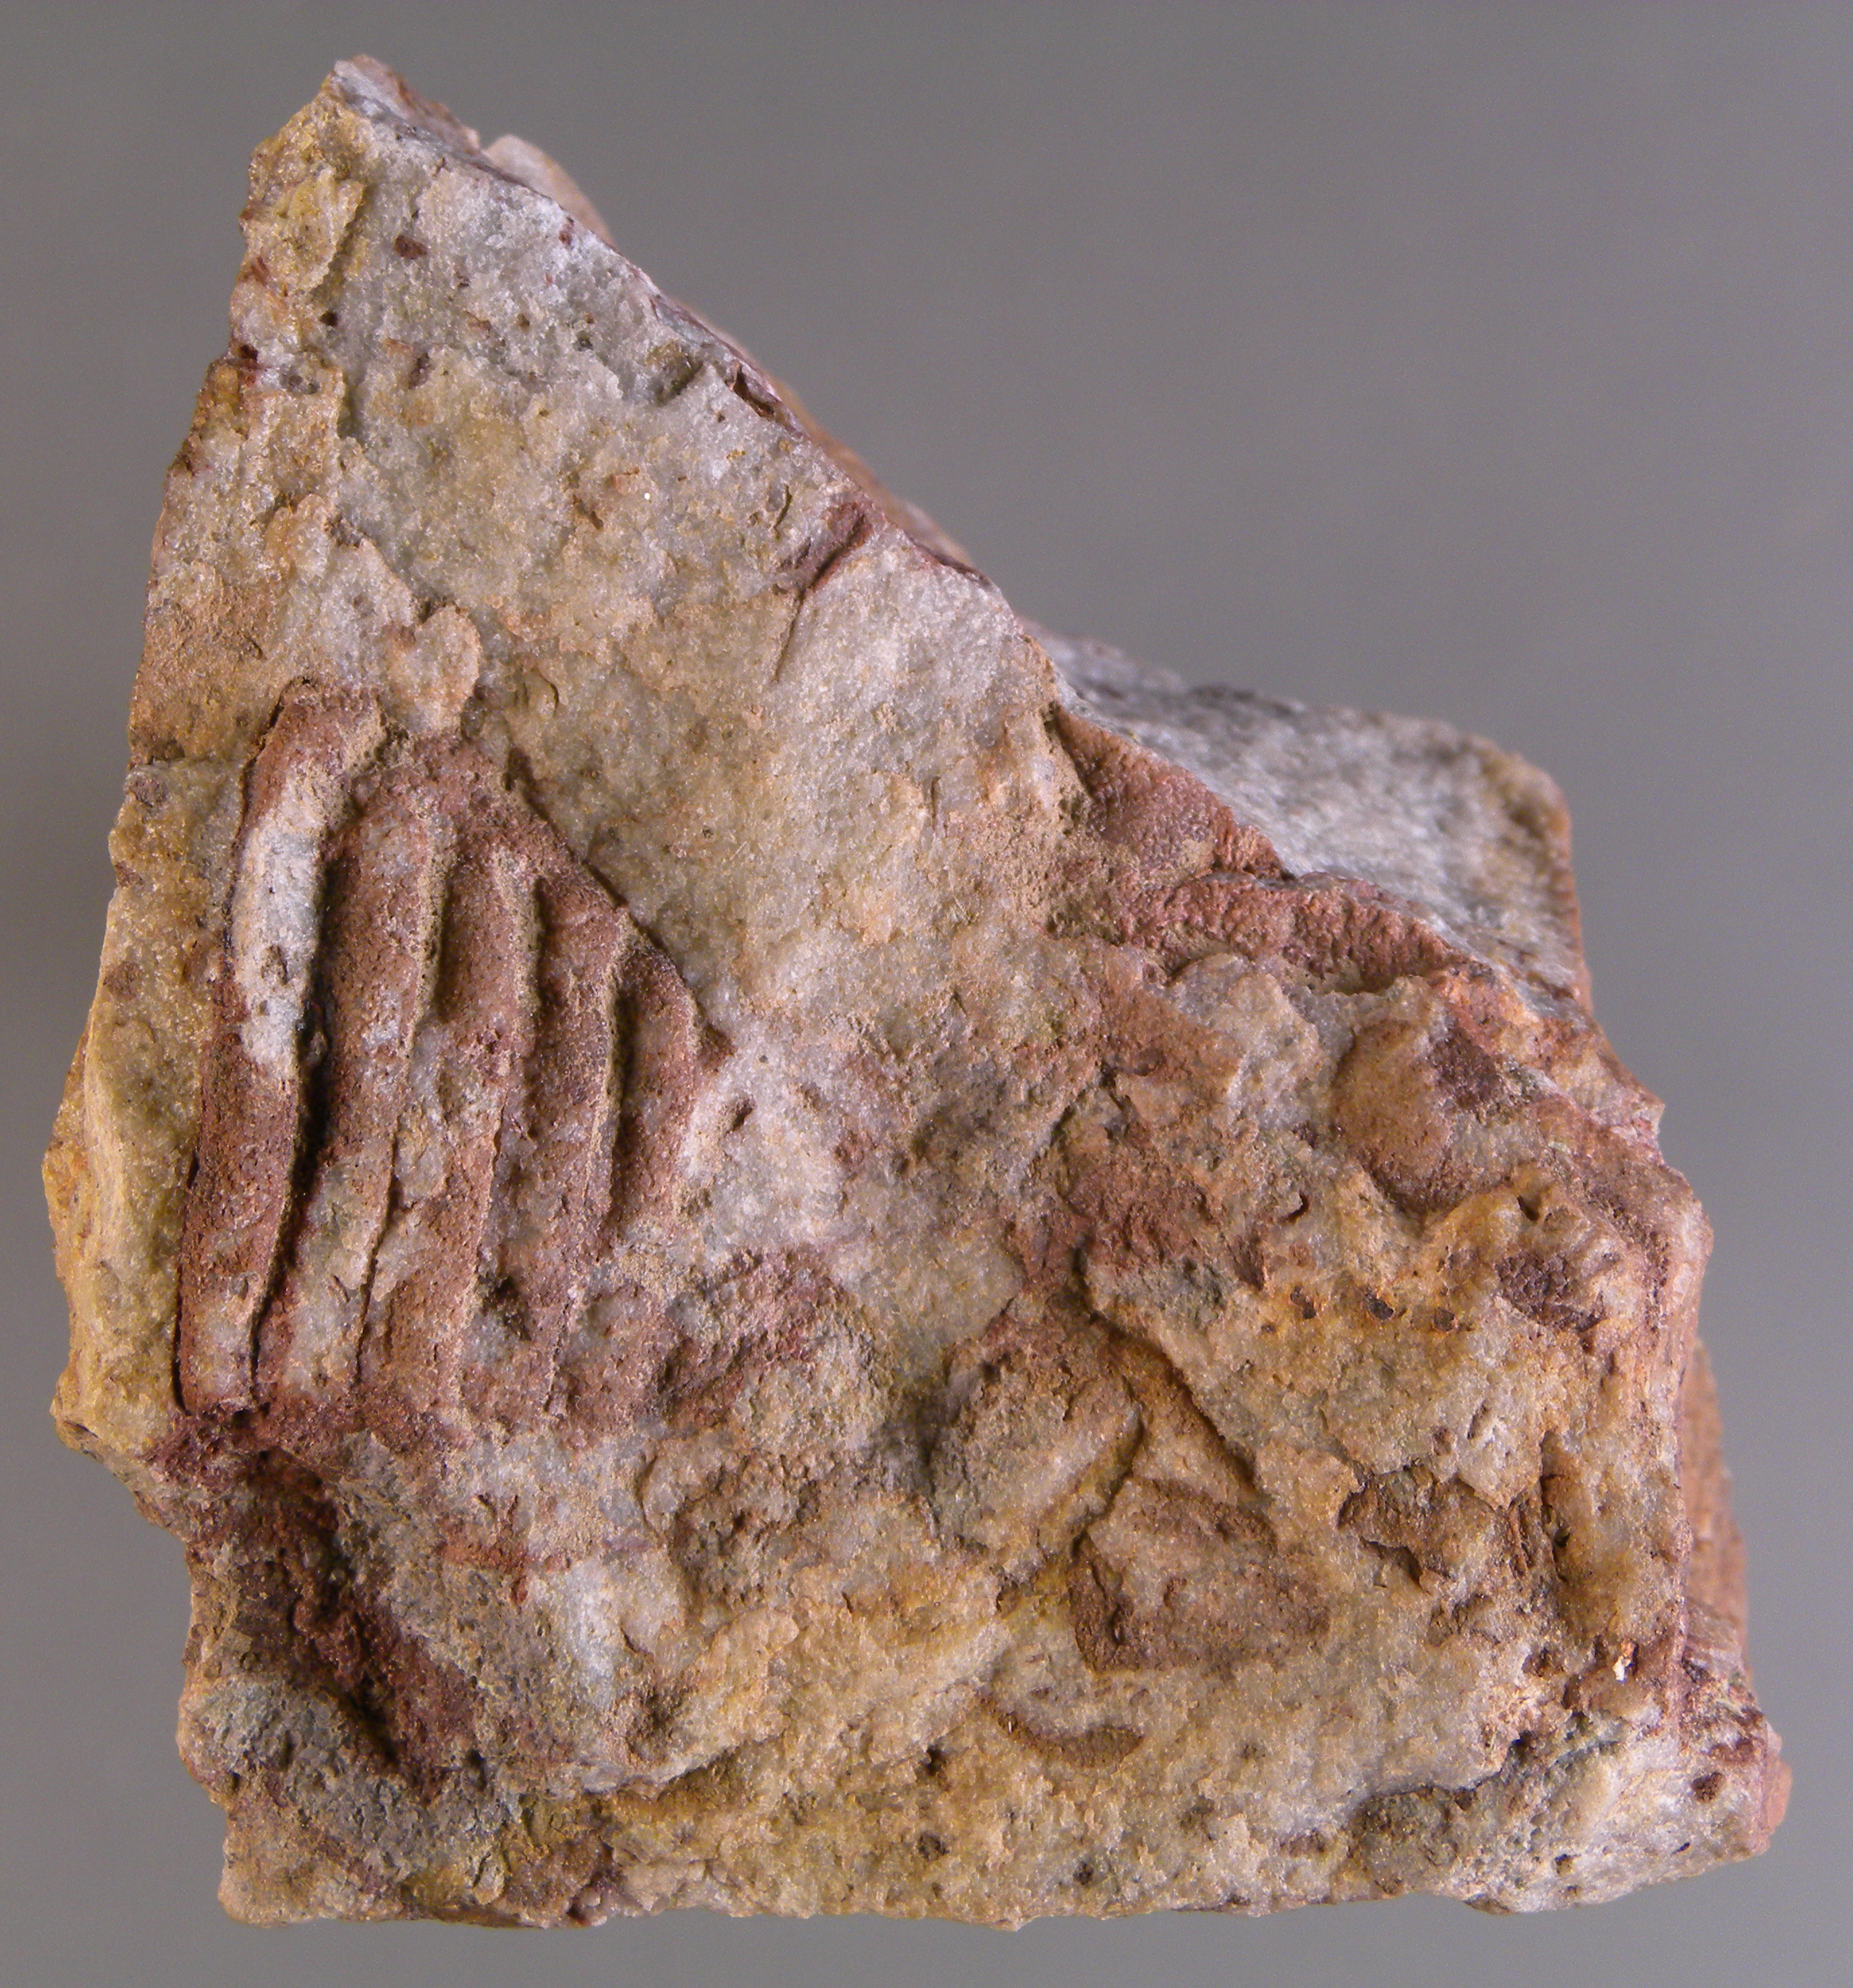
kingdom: Animalia
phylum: Arthropoda
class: Trilobita
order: Phacopida
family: Homalonotidae
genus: Digonus
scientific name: Digonus
